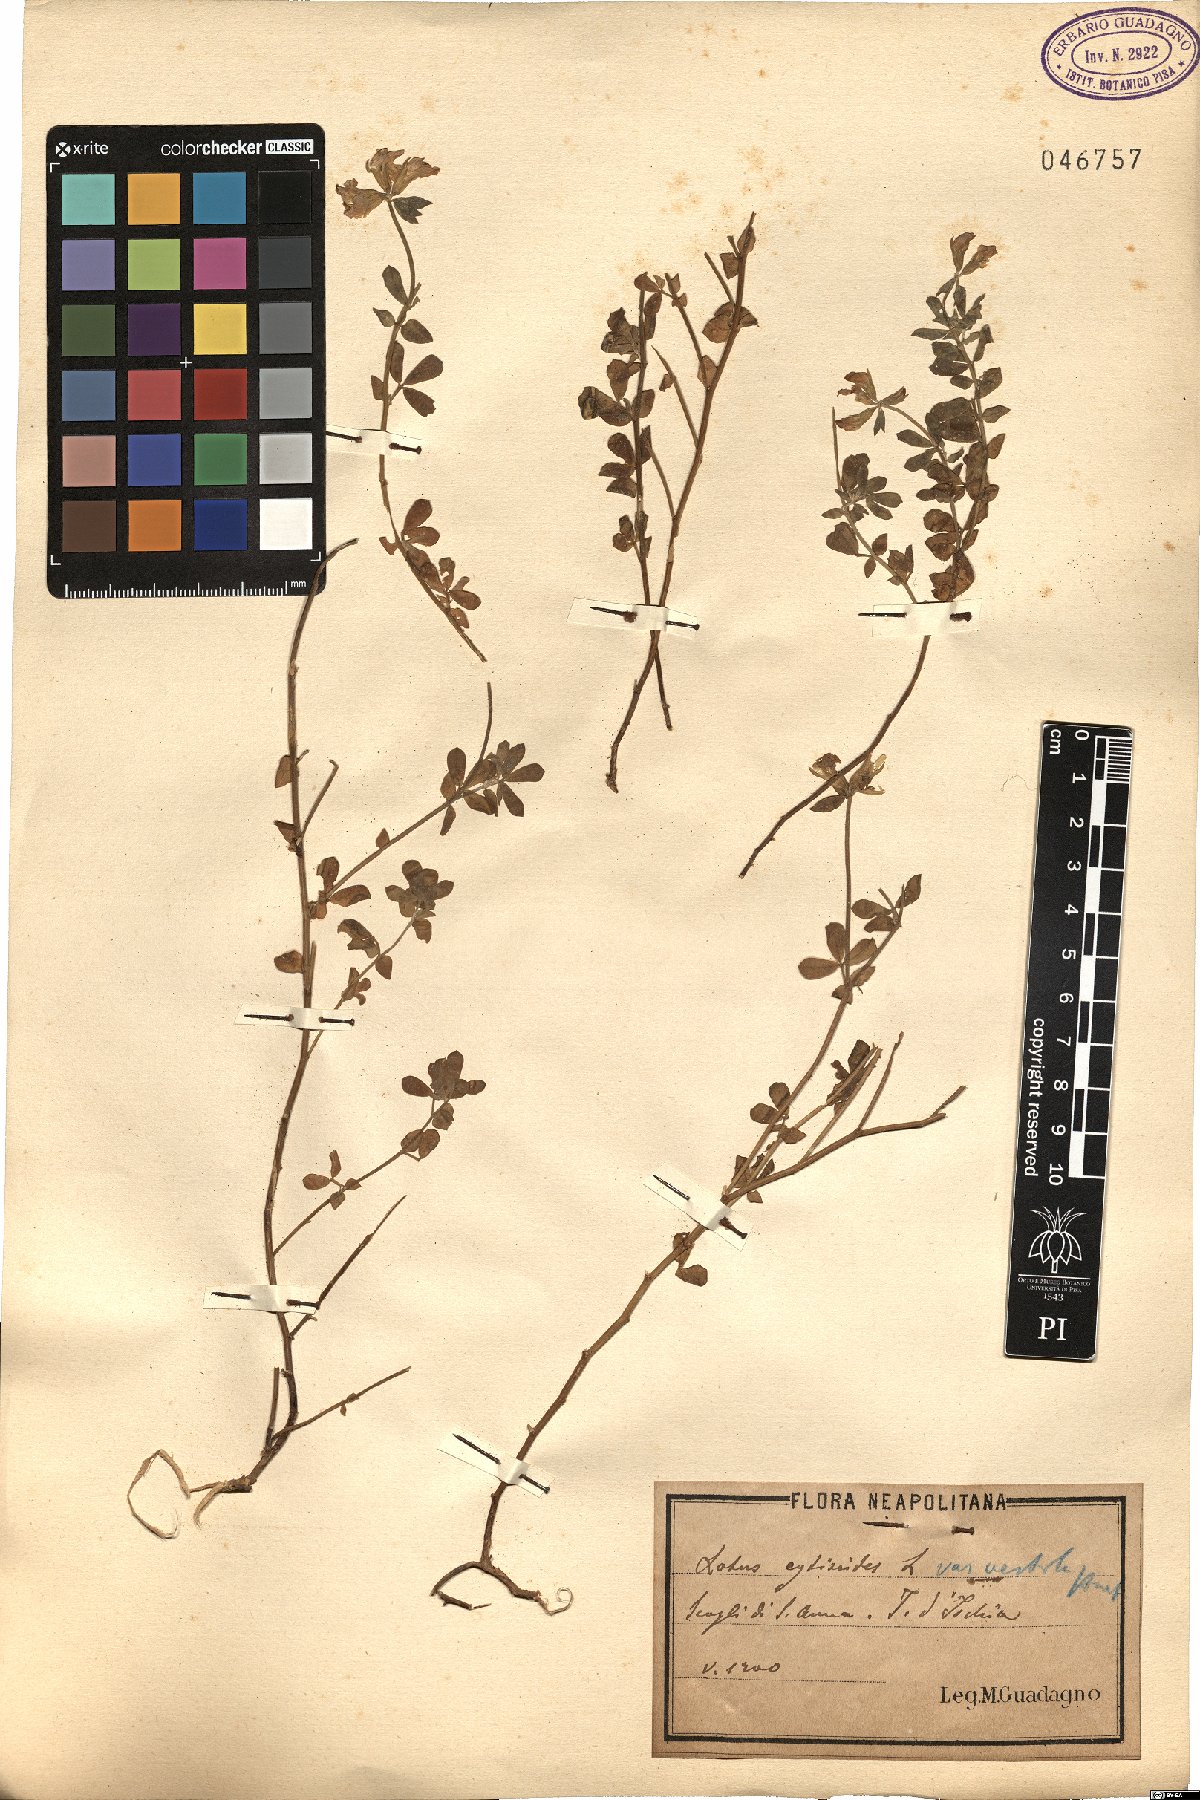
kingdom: Plantae
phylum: Tracheophyta
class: Magnoliopsida
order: Fabales
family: Fabaceae
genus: Lotus
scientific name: Lotus cytisoides
